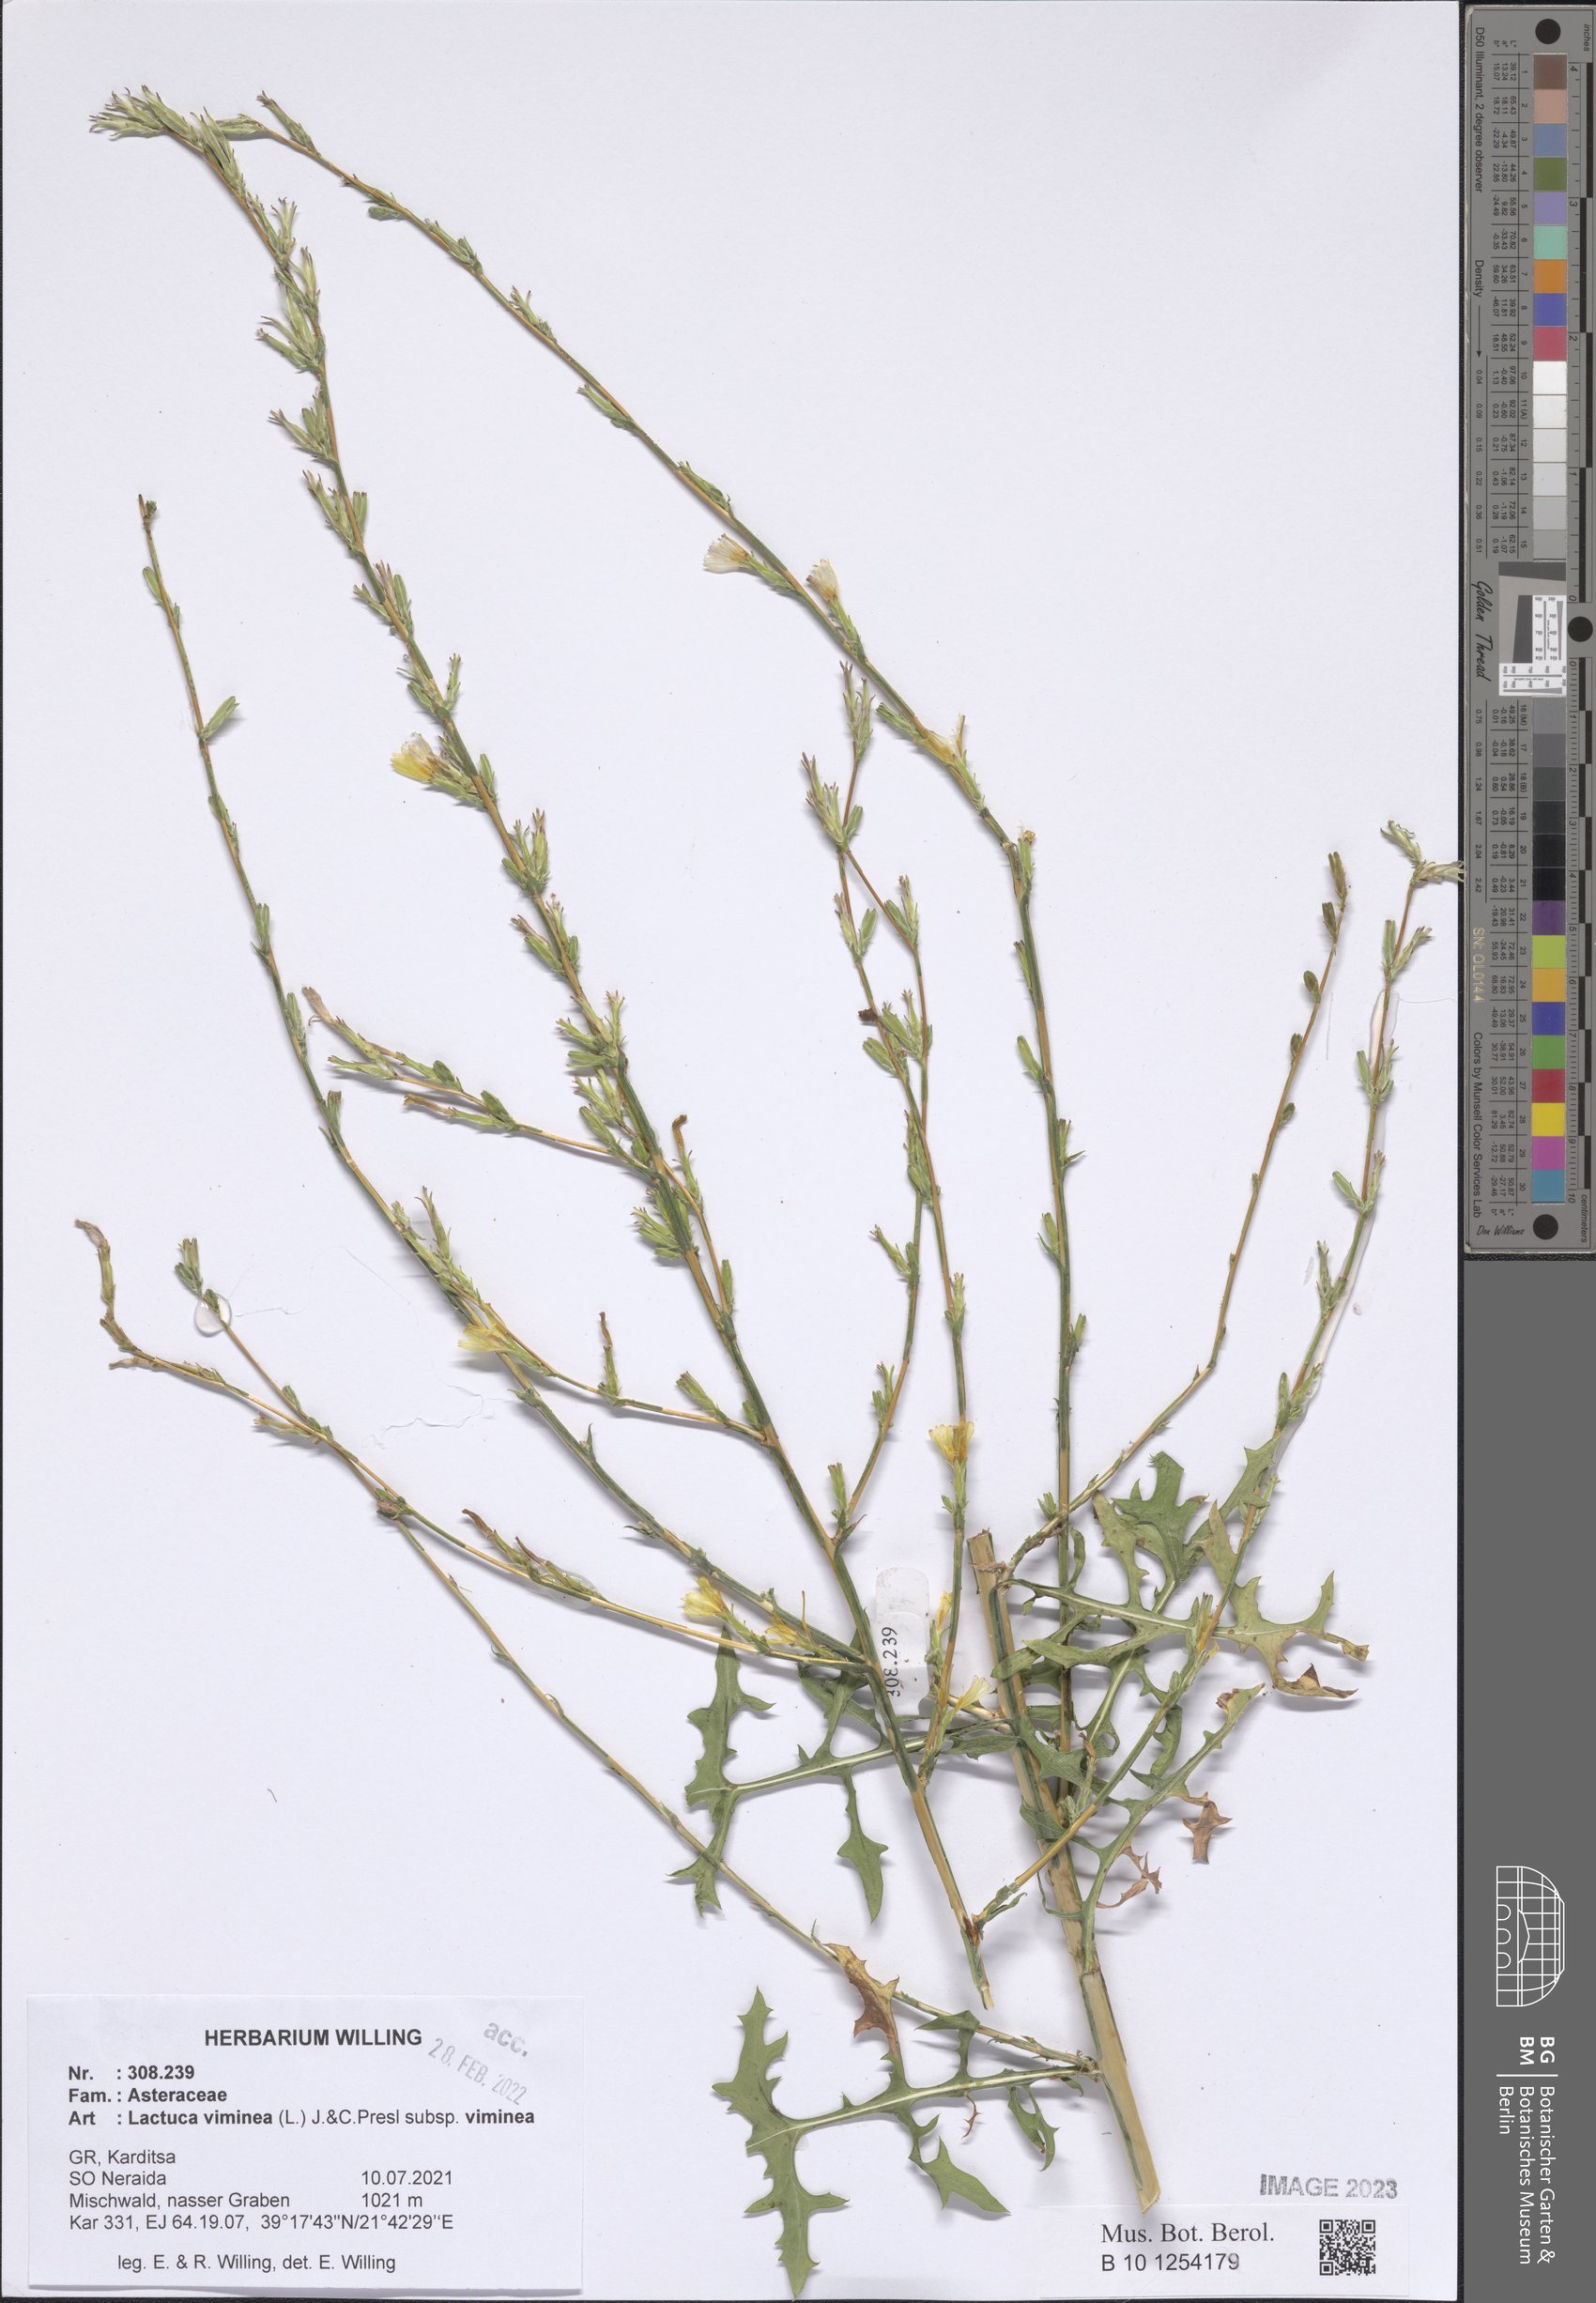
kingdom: Plantae
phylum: Tracheophyta
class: Magnoliopsida
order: Asterales
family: Asteraceae
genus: Lactuca
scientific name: Lactuca viminea
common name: Pliant lettuce
